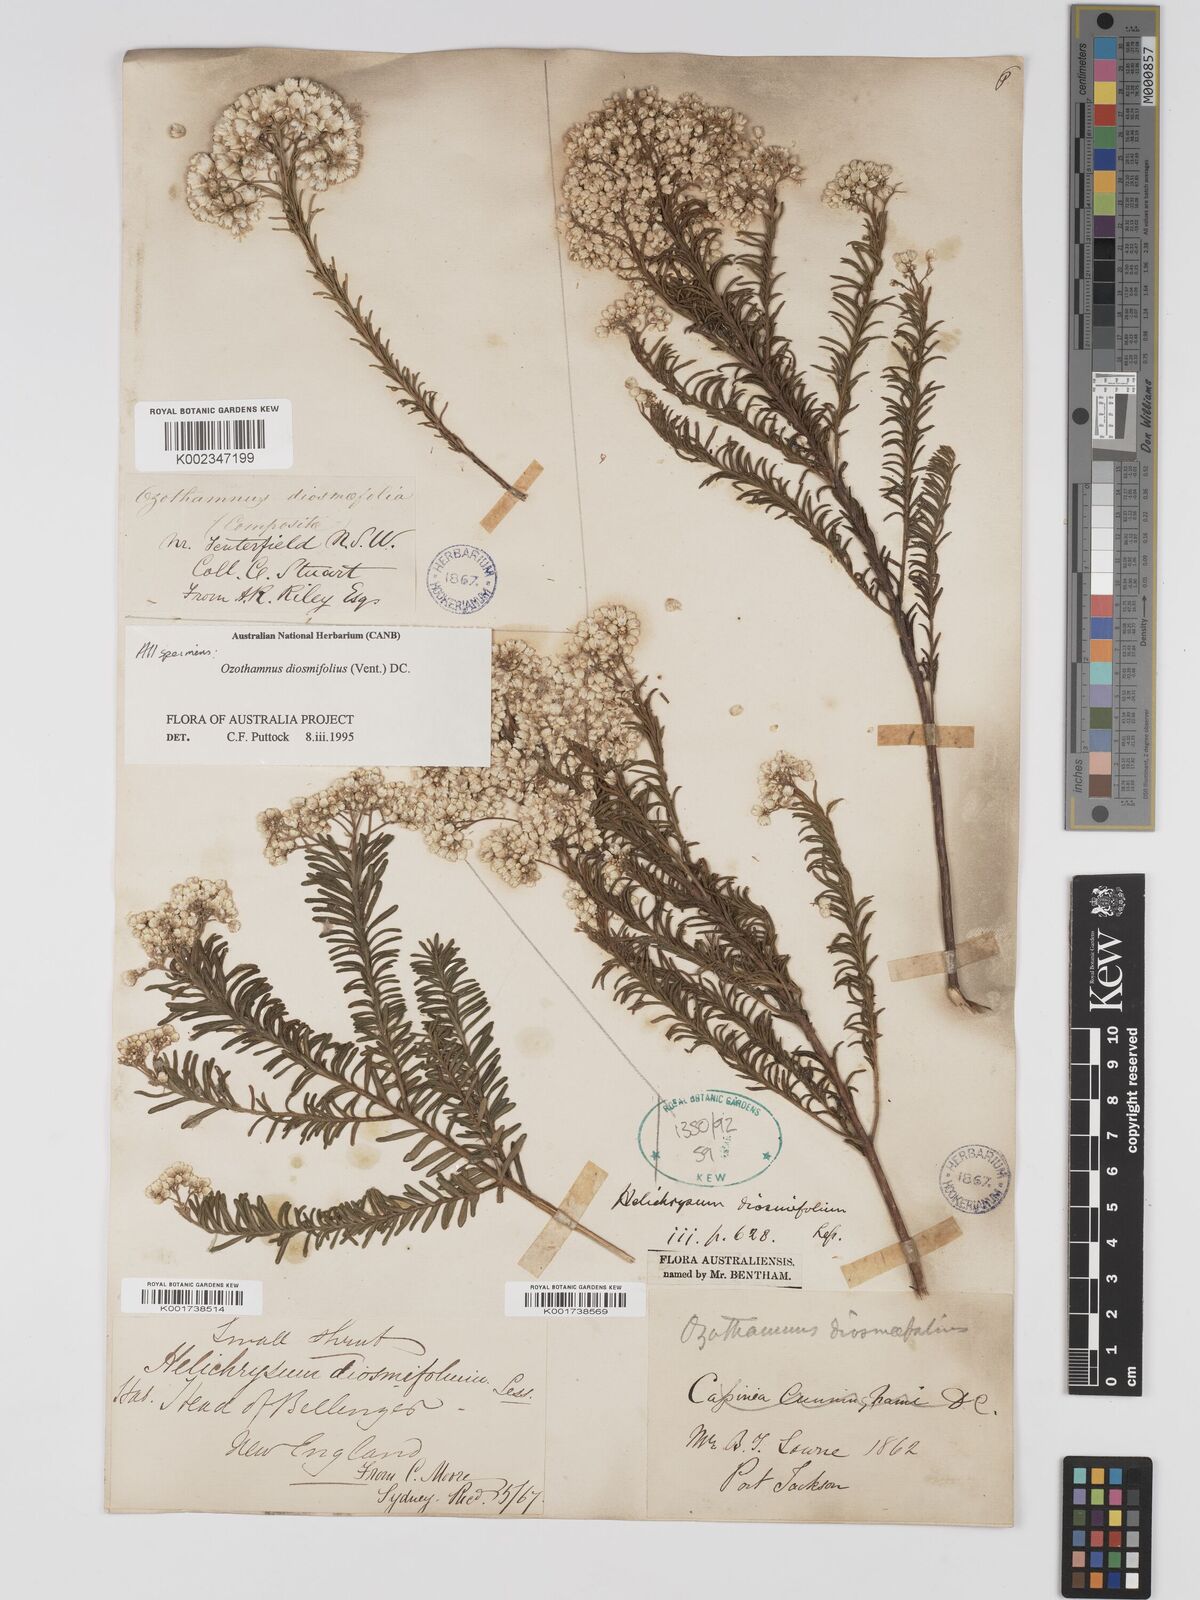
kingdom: Plantae
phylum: Tracheophyta
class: Magnoliopsida
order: Asterales
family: Asteraceae
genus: Ozothamnus
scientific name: Ozothamnus diosmifolius
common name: White-dogwood
